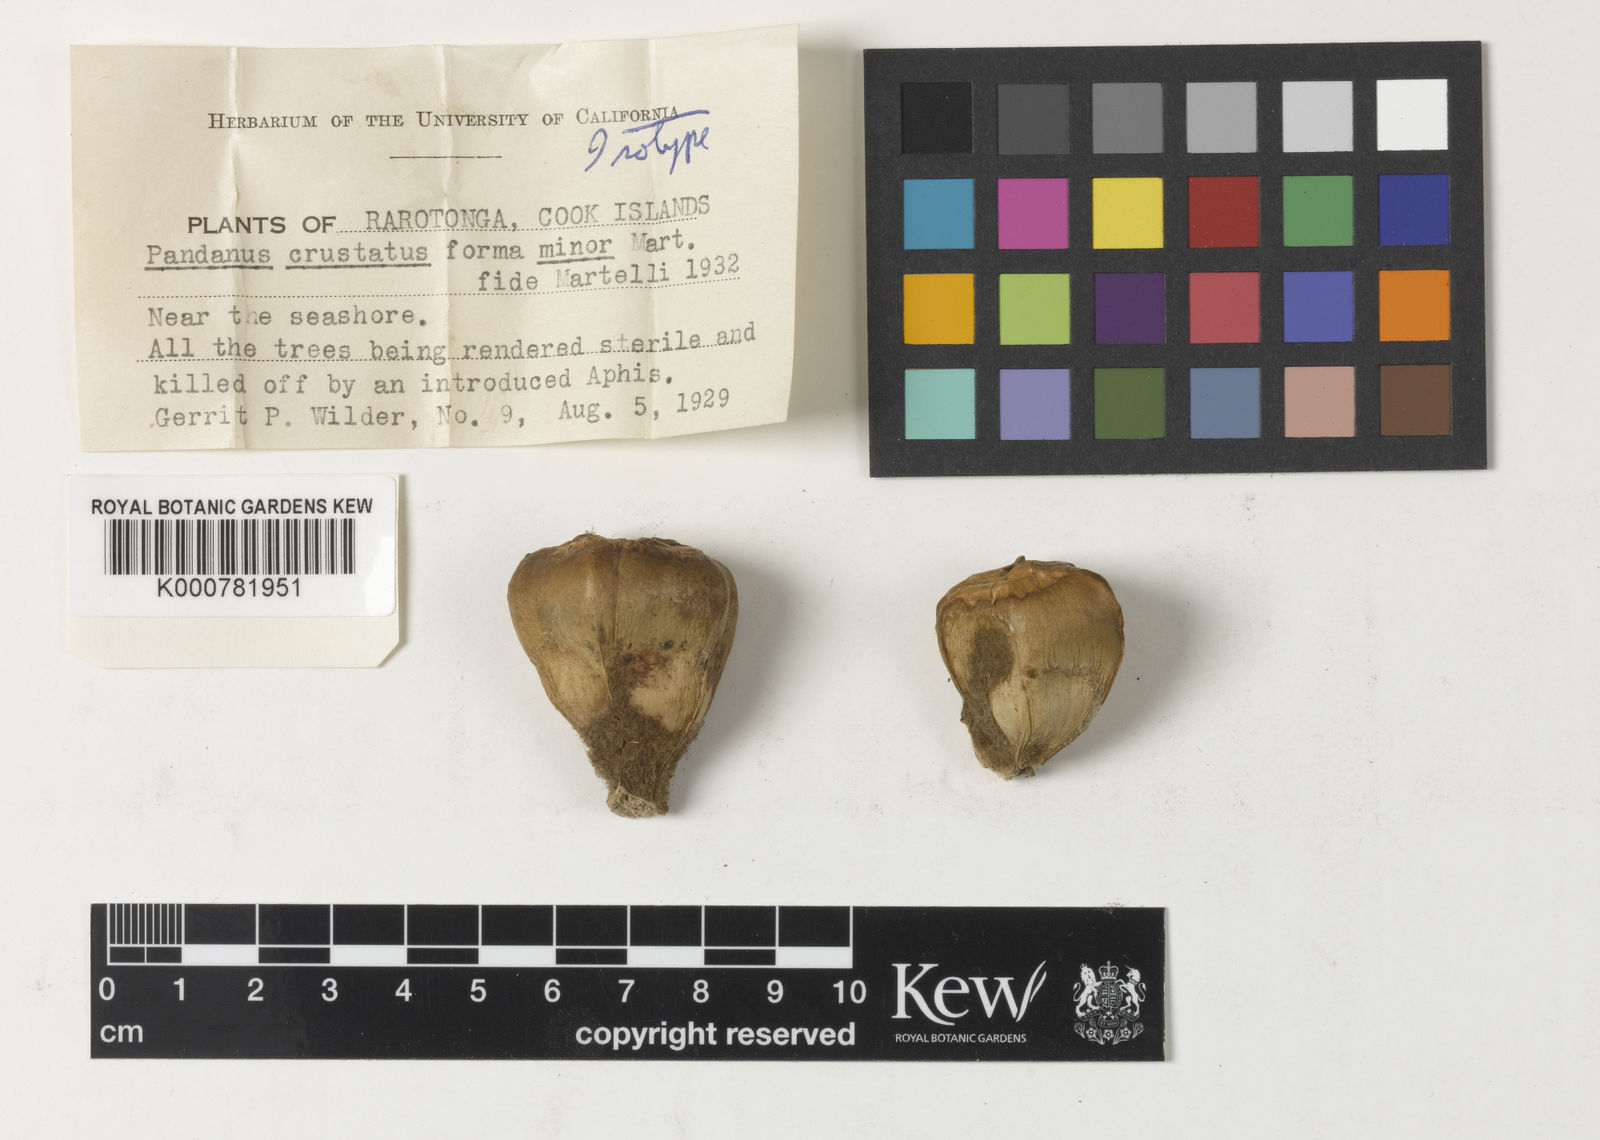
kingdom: Plantae
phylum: Tracheophyta
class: Liliopsida
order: Pandanales
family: Pandanaceae
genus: Pandanus
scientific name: Pandanus tectorius
